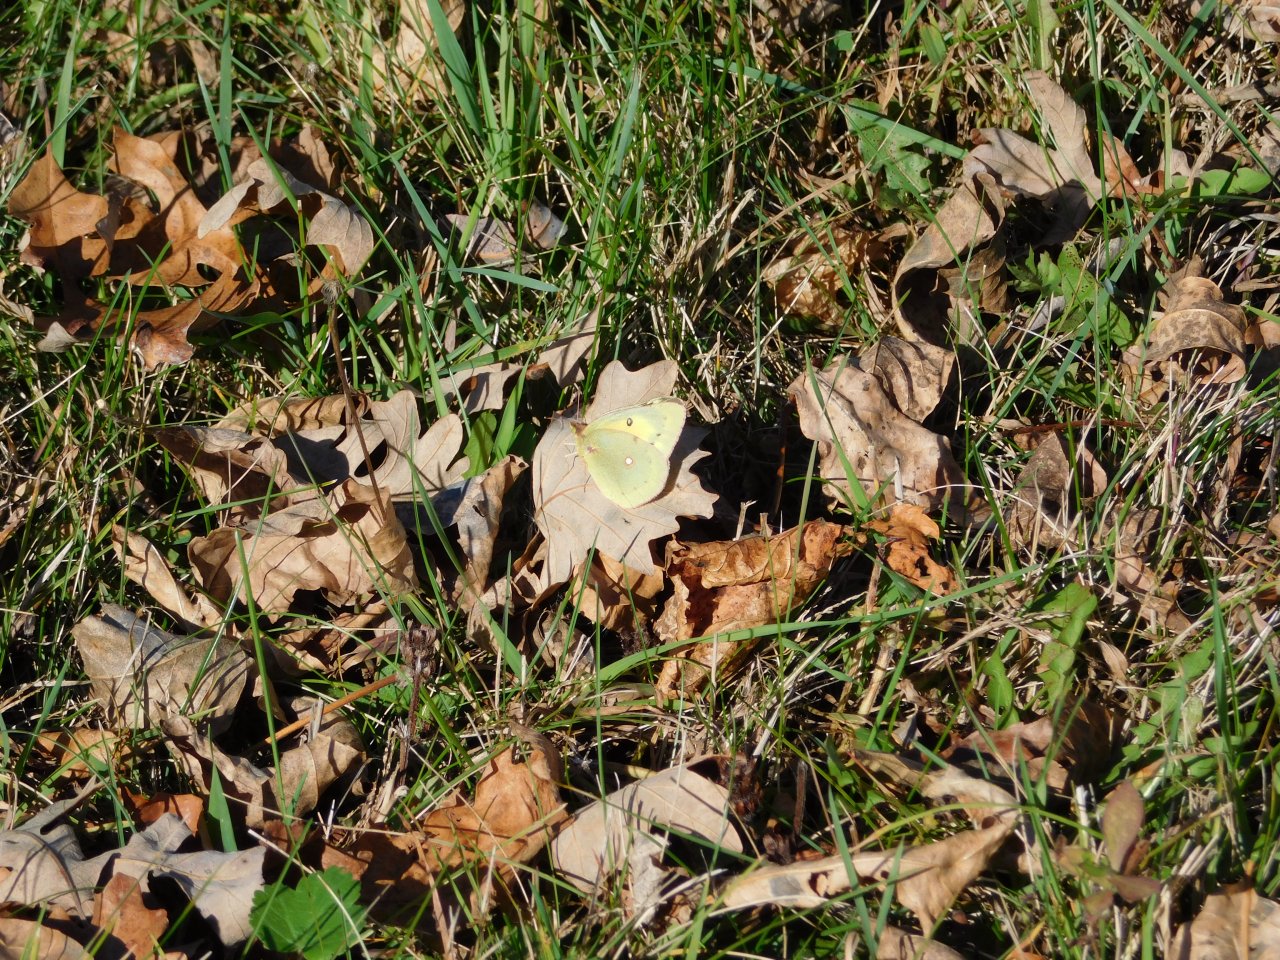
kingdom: Animalia
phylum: Arthropoda
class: Insecta
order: Lepidoptera
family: Pieridae
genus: Colias
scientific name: Colias eurytheme
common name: Orange Sulphur
